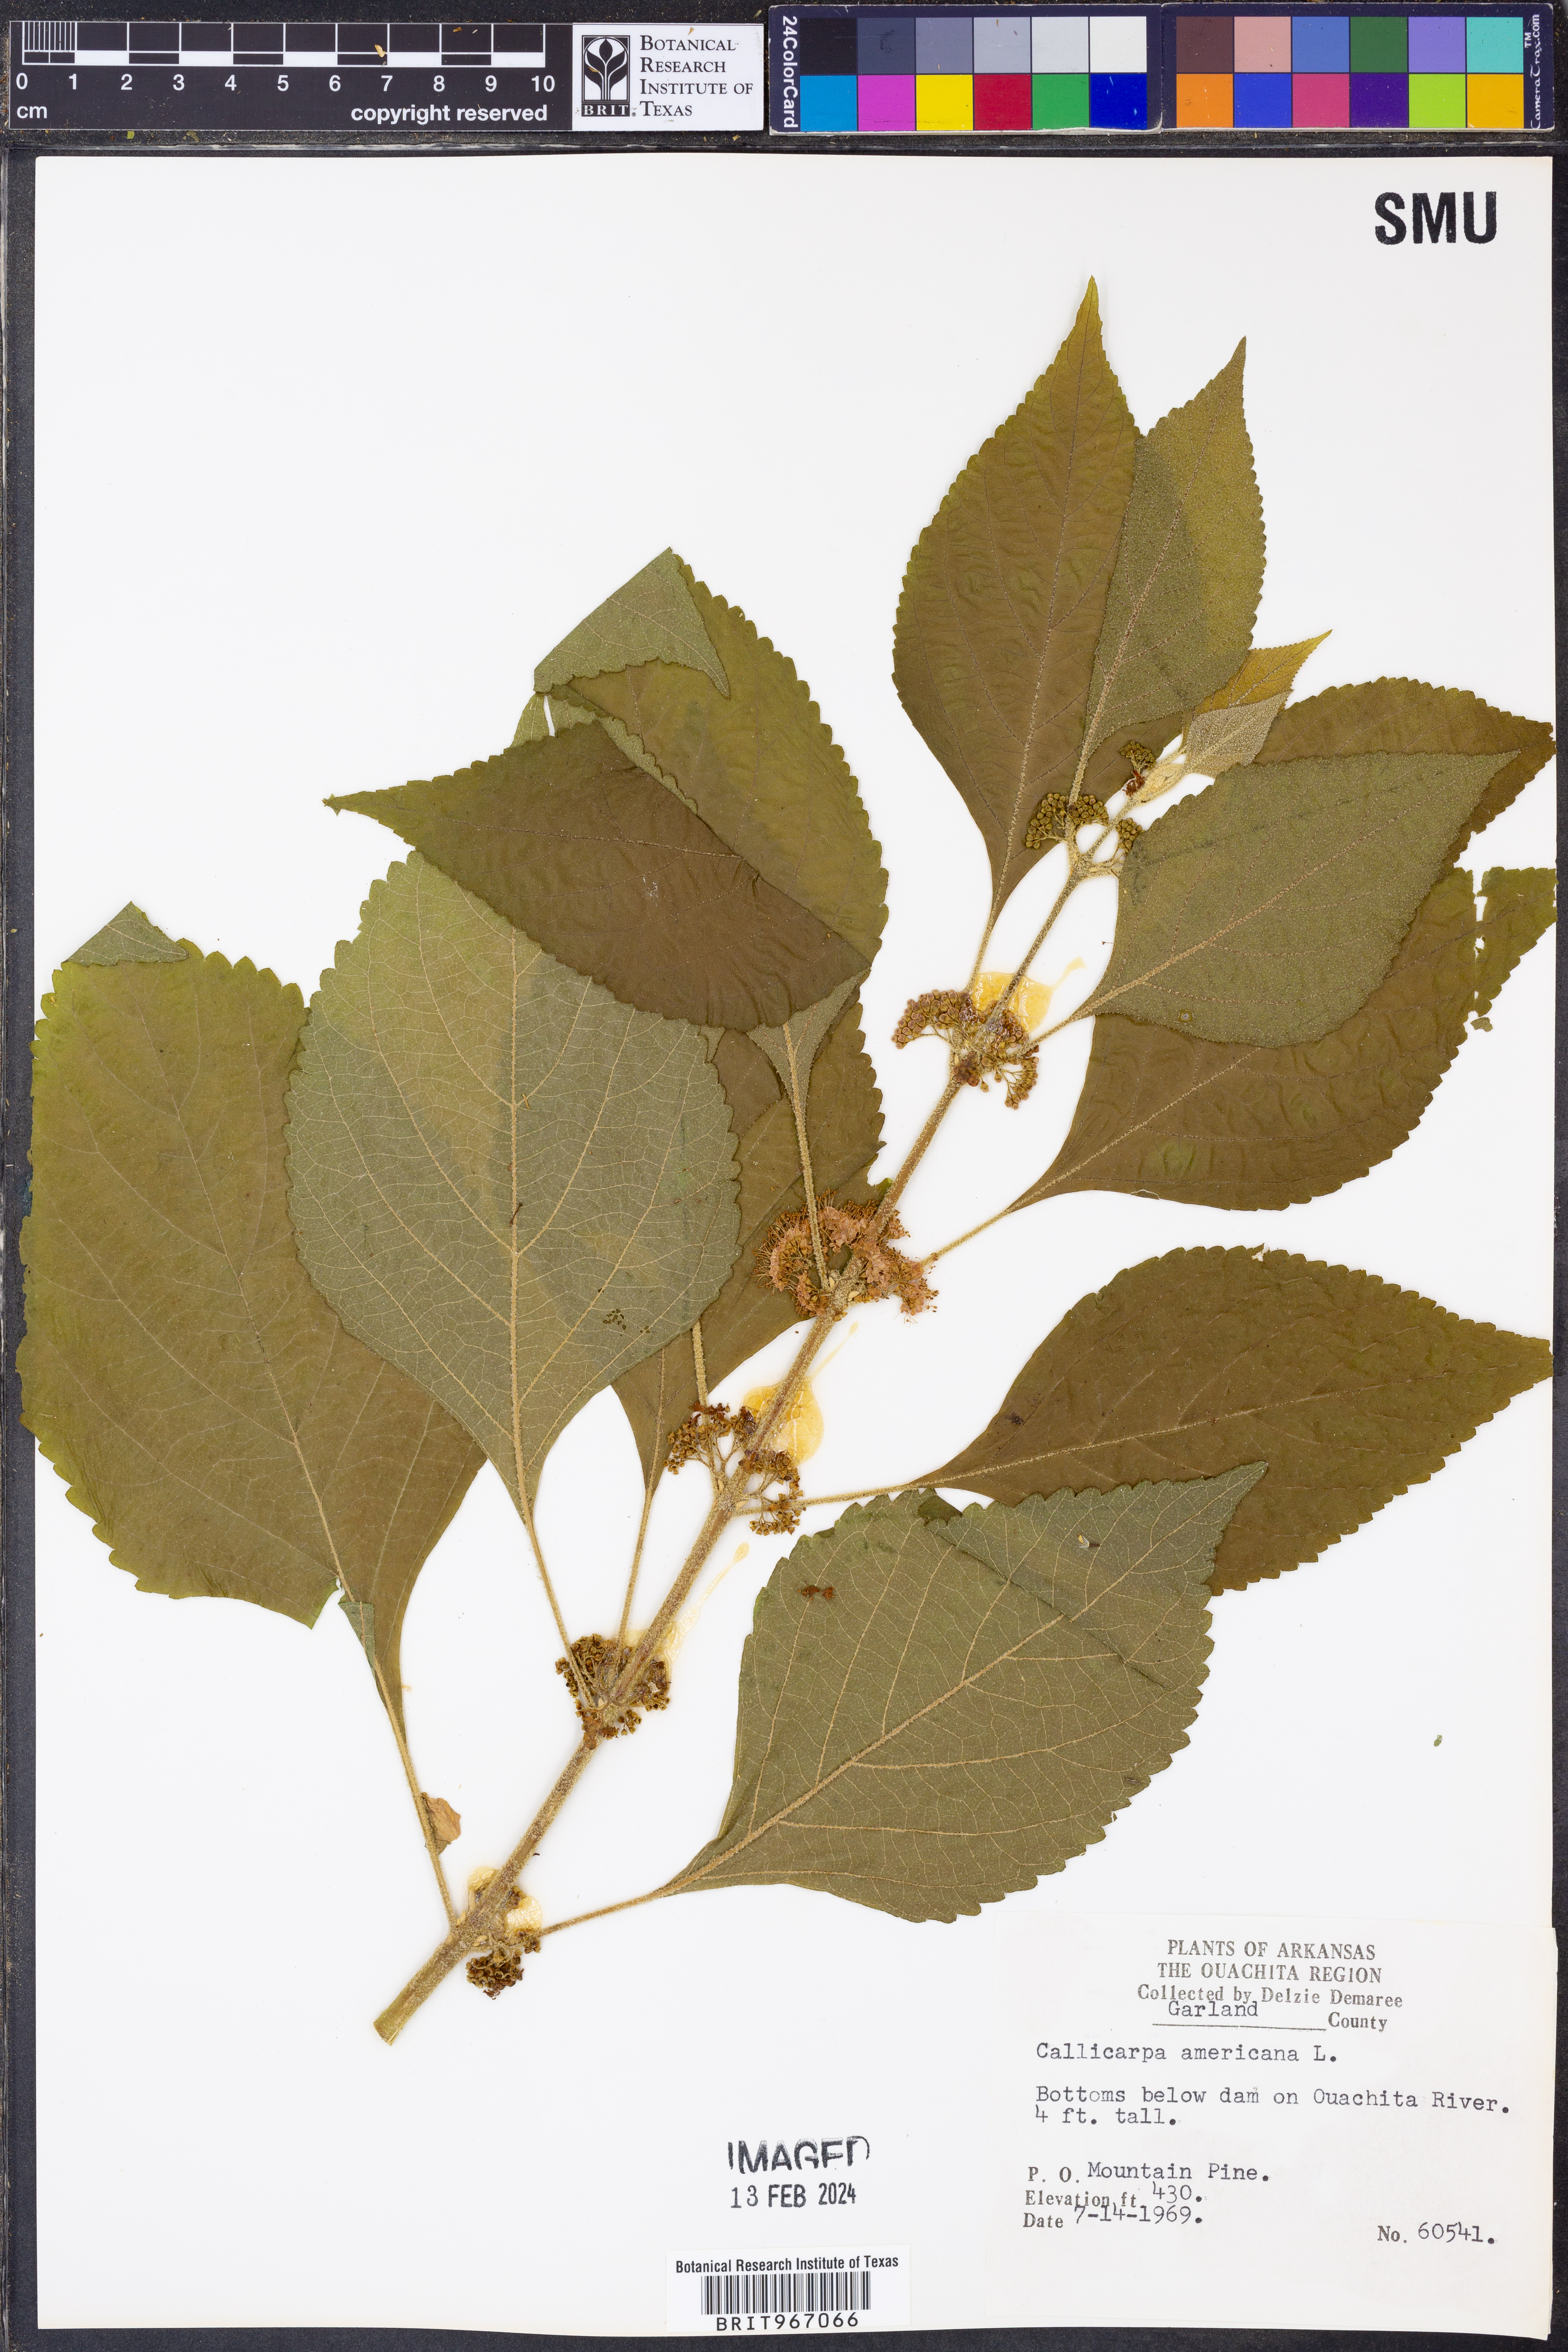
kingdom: Plantae
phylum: Tracheophyta
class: Magnoliopsida
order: Lamiales
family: Lamiaceae
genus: Callicarpa
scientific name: Callicarpa americana
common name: American beautyberry
